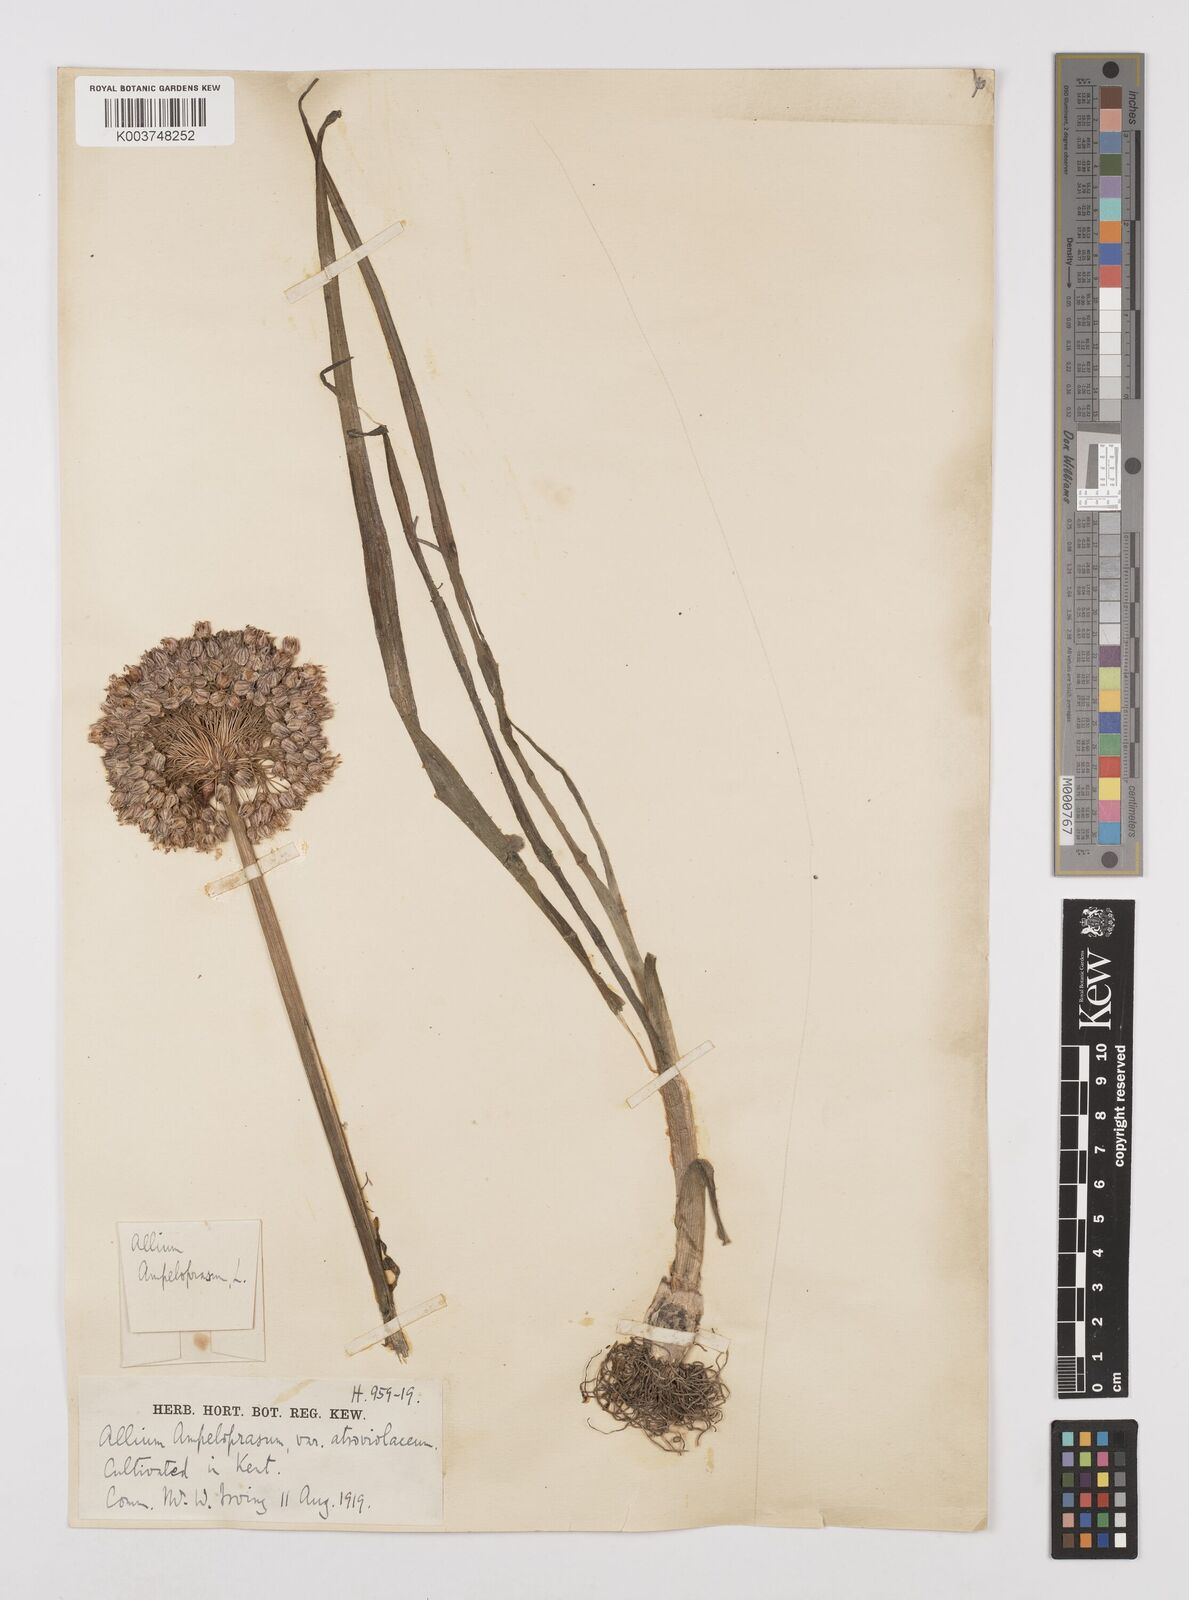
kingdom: Plantae
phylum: Tracheophyta
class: Liliopsida
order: Asparagales
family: Amaryllidaceae
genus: Allium
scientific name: Allium ampeloprasum
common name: Wild leek
